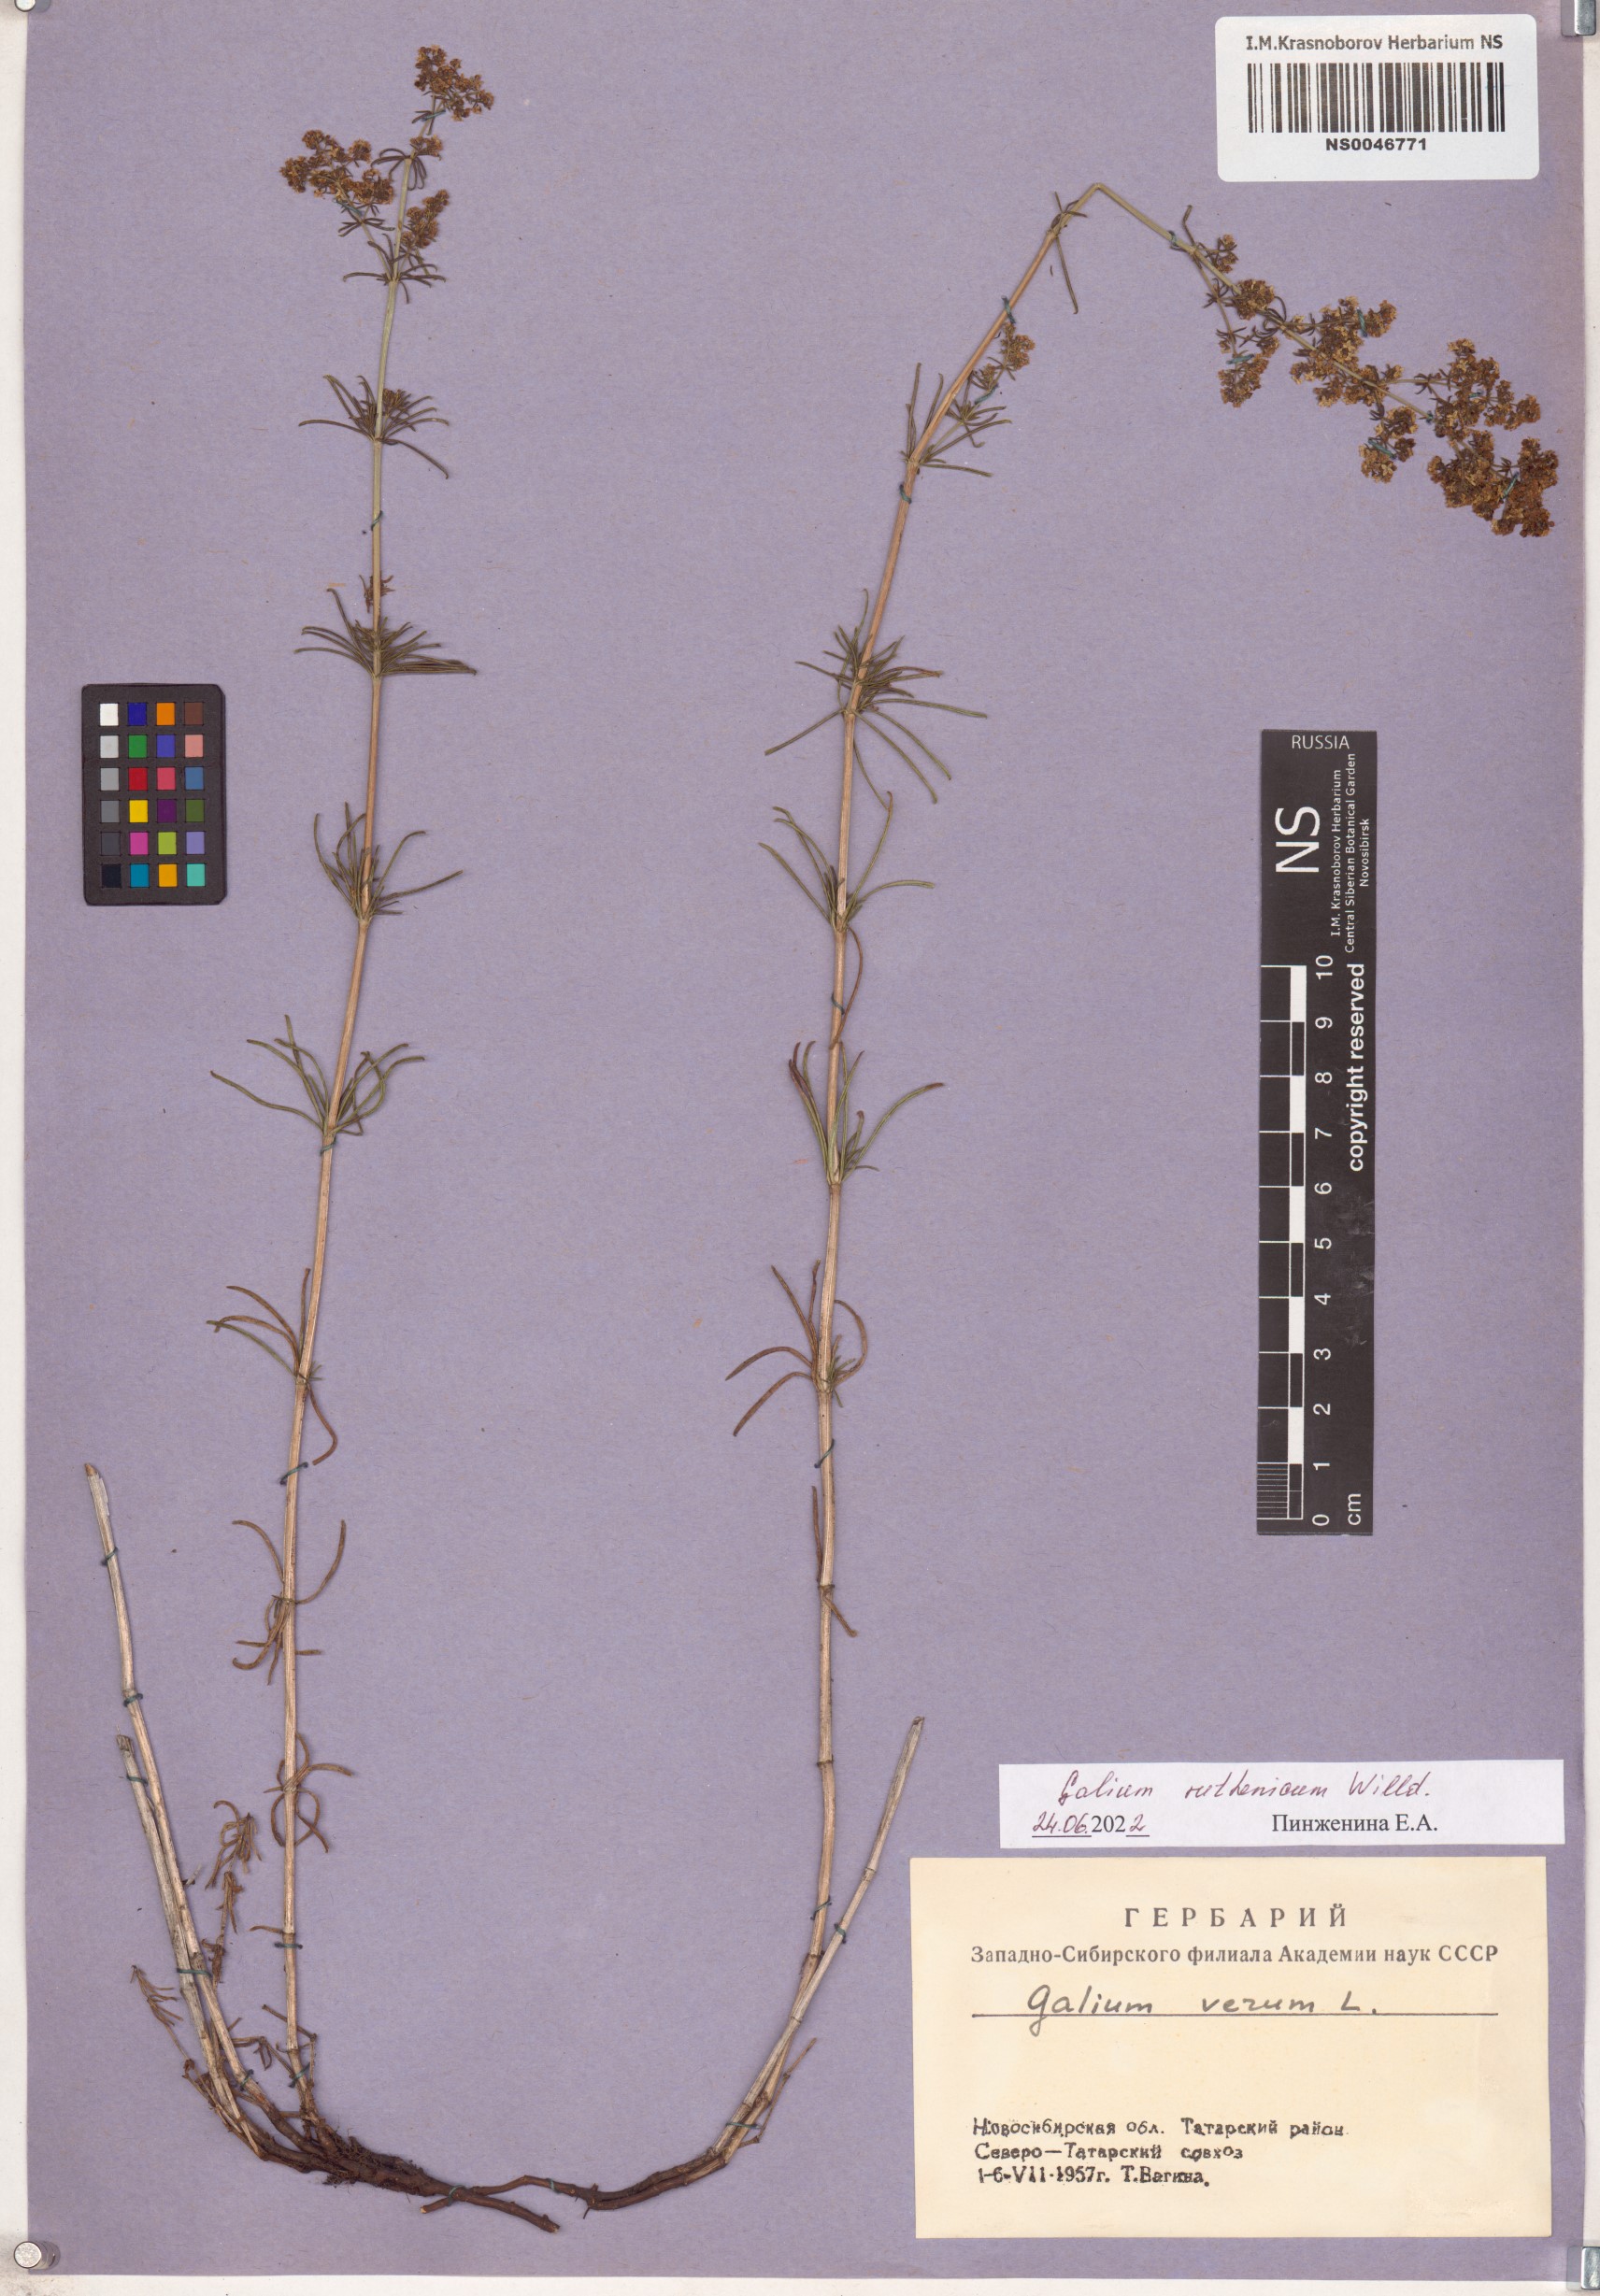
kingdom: Plantae
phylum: Tracheophyta
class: Magnoliopsida
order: Gentianales
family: Rubiaceae
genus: Galium
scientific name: Galium verum
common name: Lady's bedstraw
